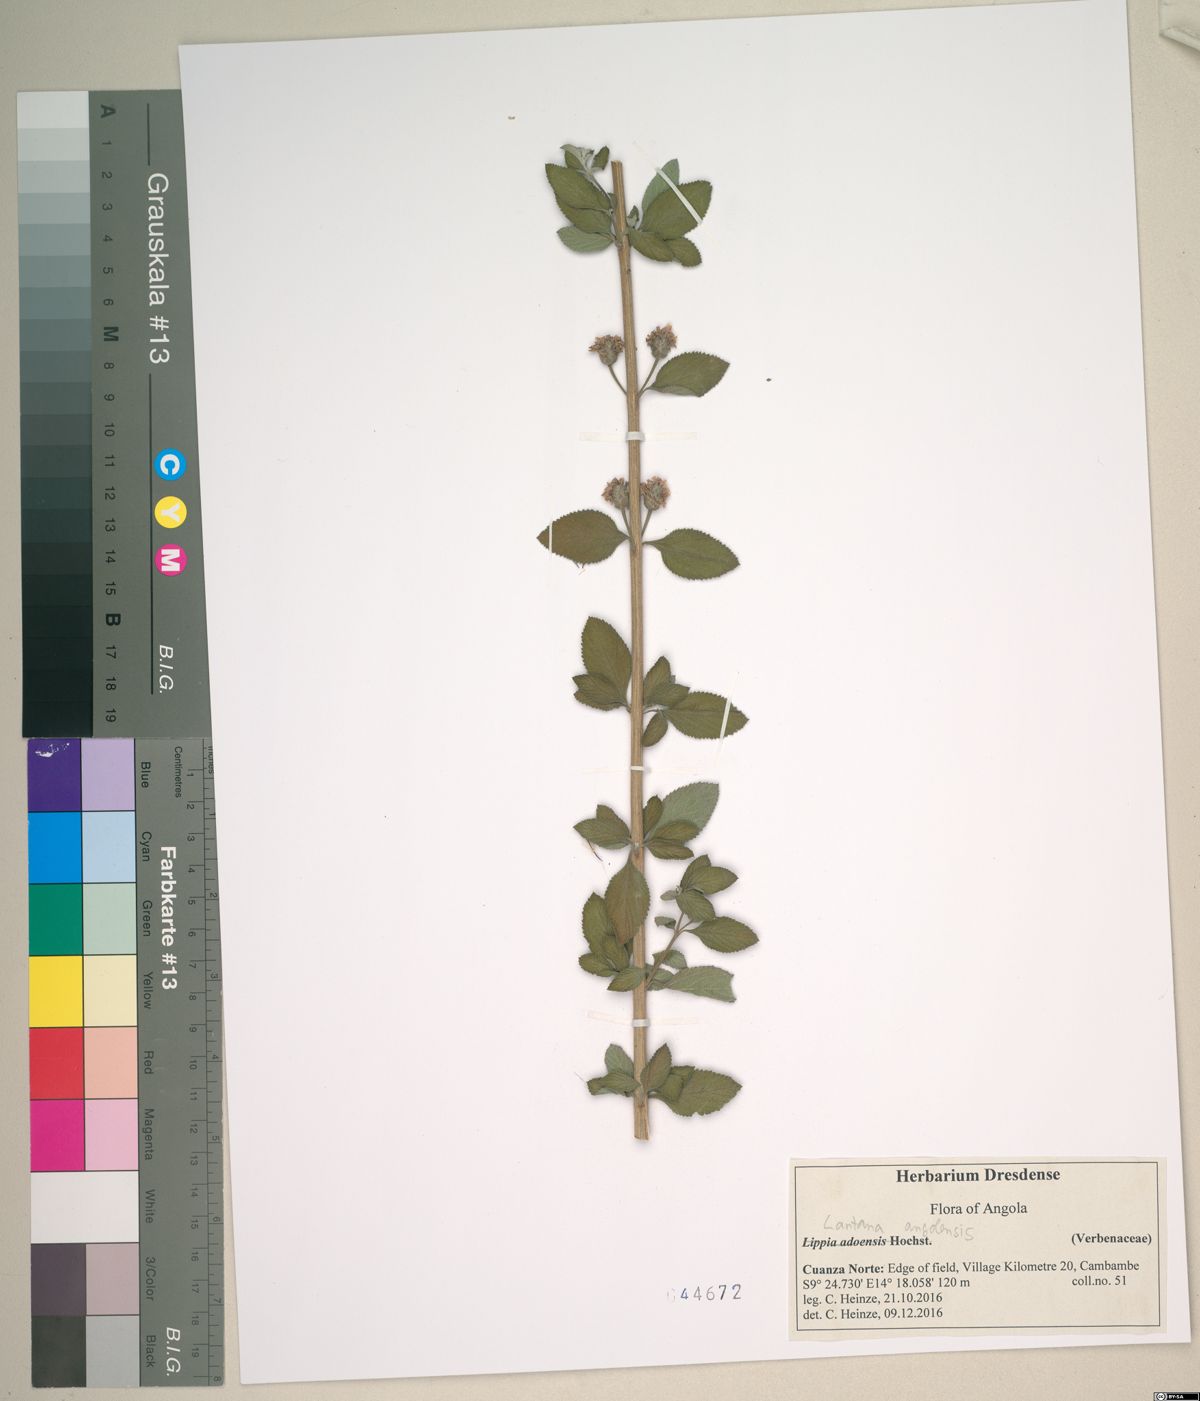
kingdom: Plantae
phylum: Tracheophyta
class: Magnoliopsida
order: Lamiales
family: Verbenaceae
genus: Lantana
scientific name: Lantana angolensis
